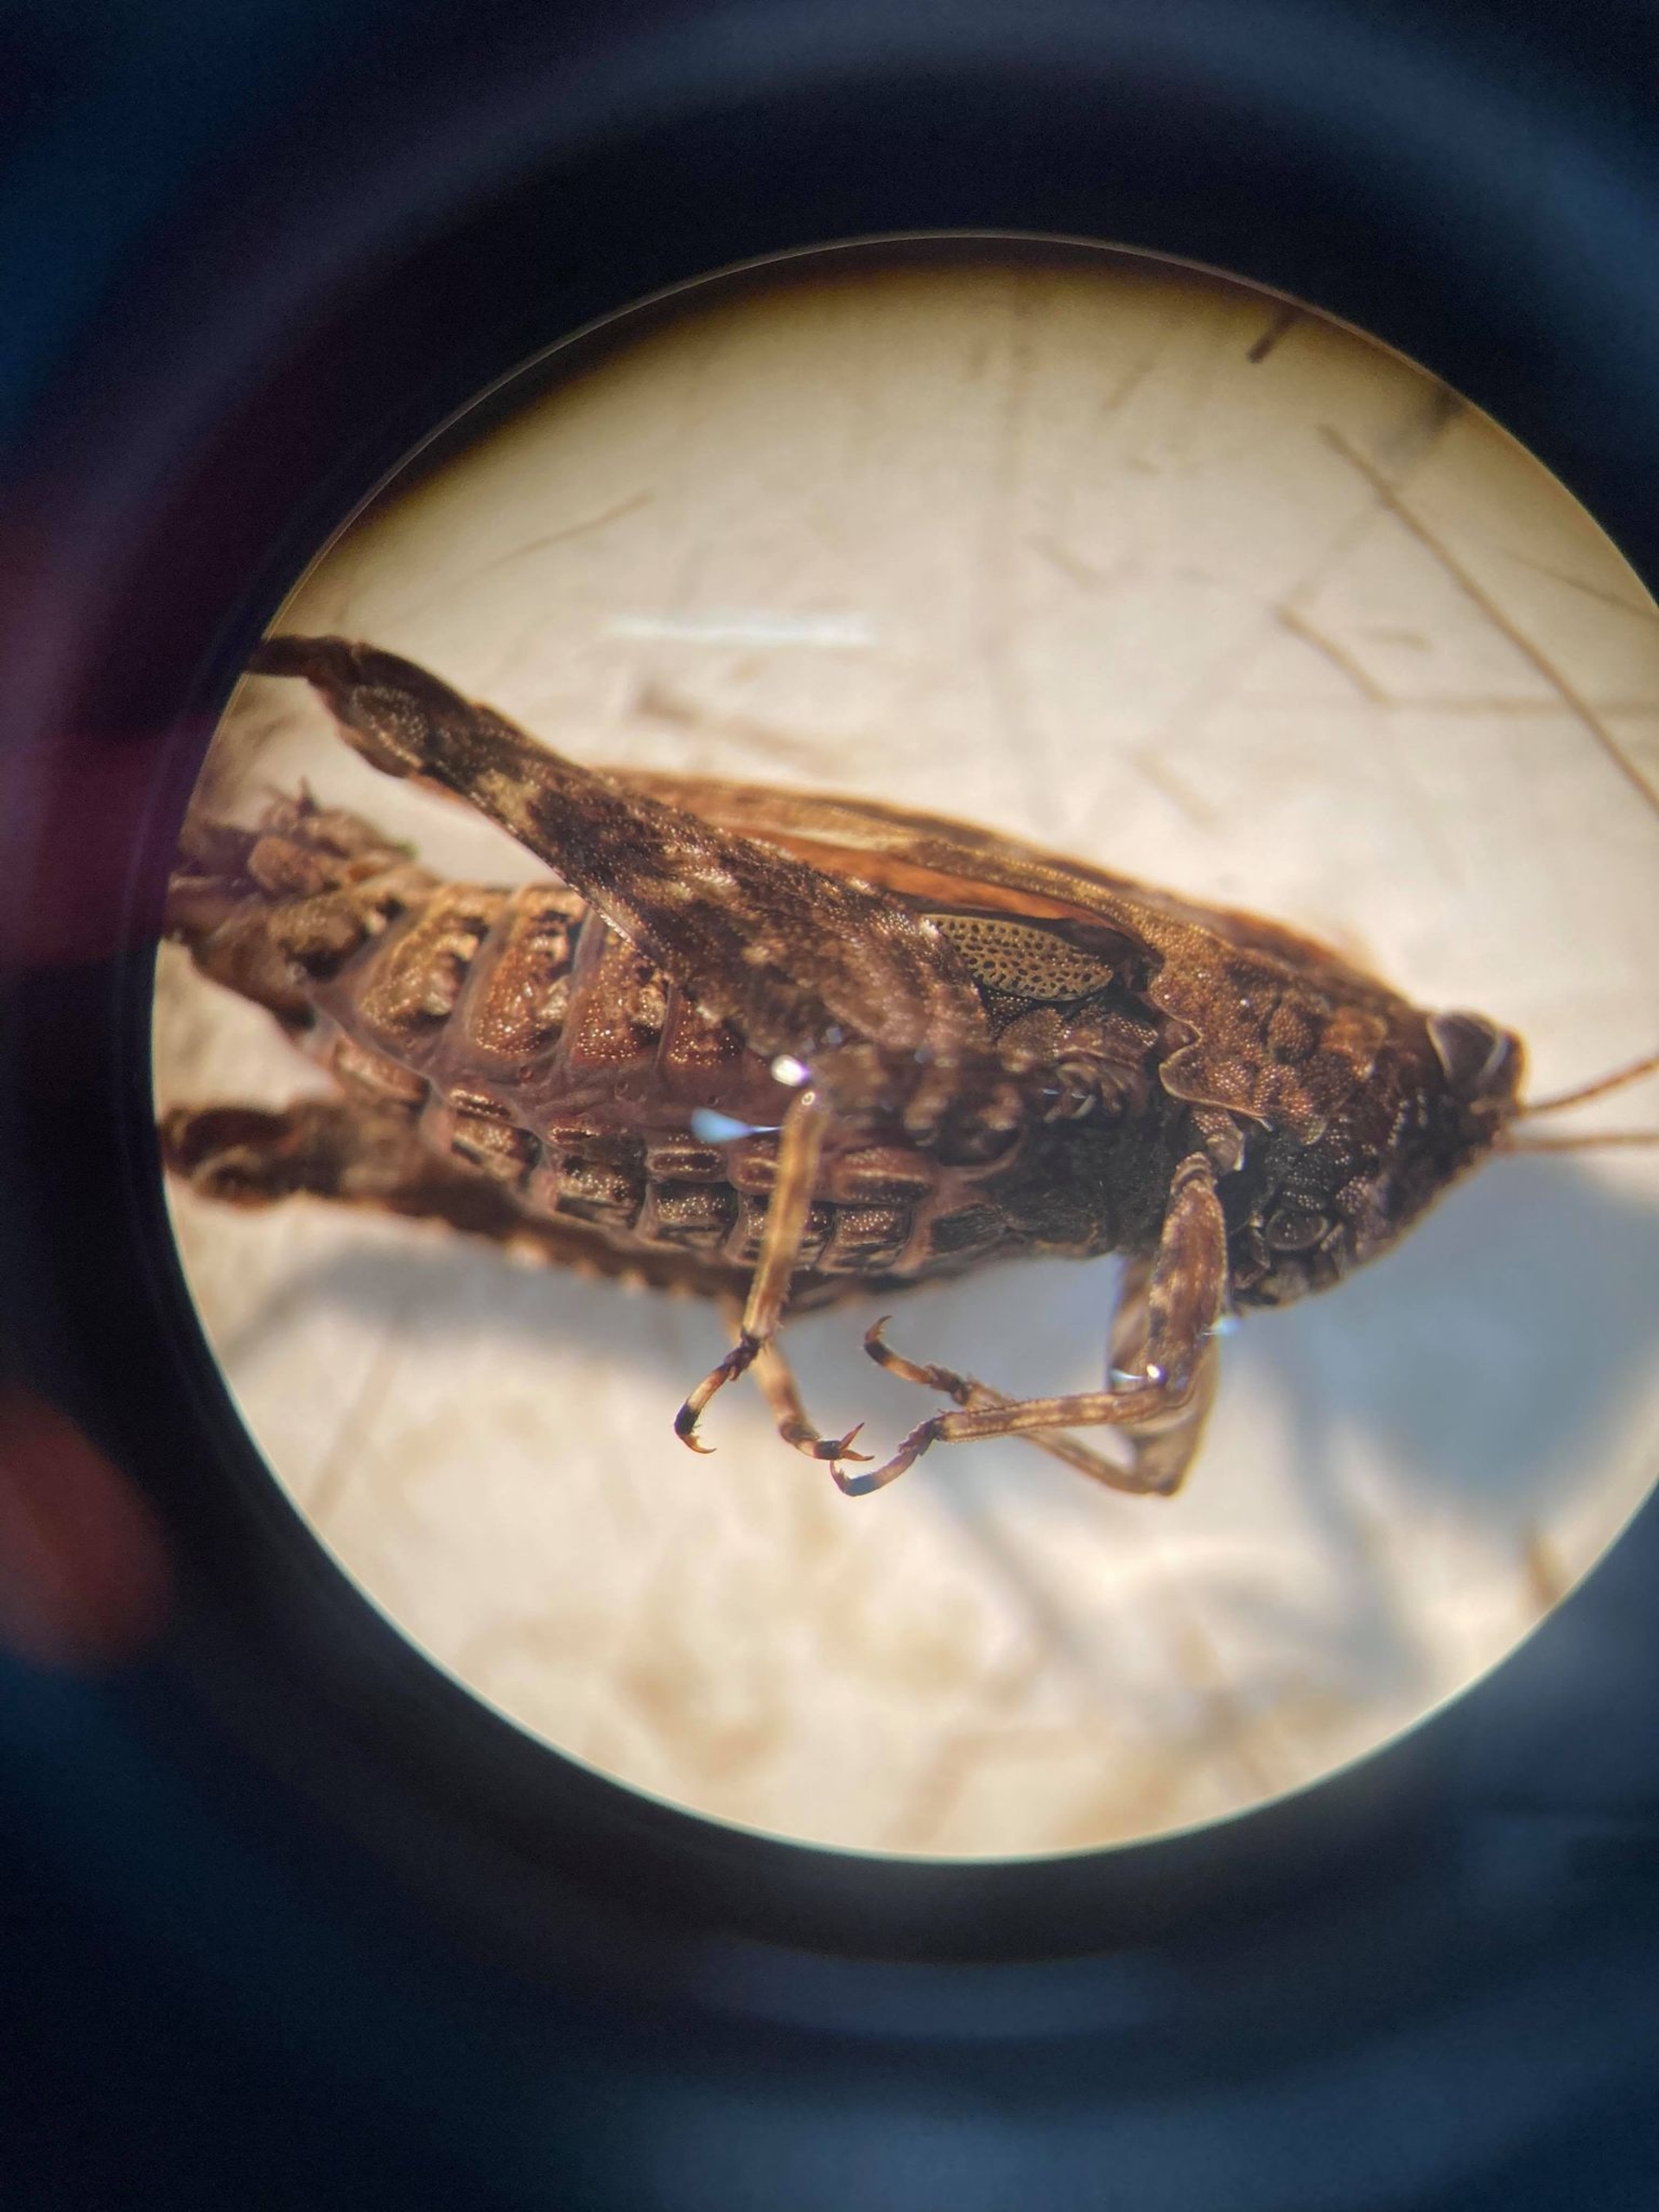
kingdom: Animalia
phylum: Arthropoda
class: Insecta
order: Orthoptera
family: Tetrigidae
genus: Tetrix
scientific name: Tetrix undulata
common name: Almindelig torngræshoppe
